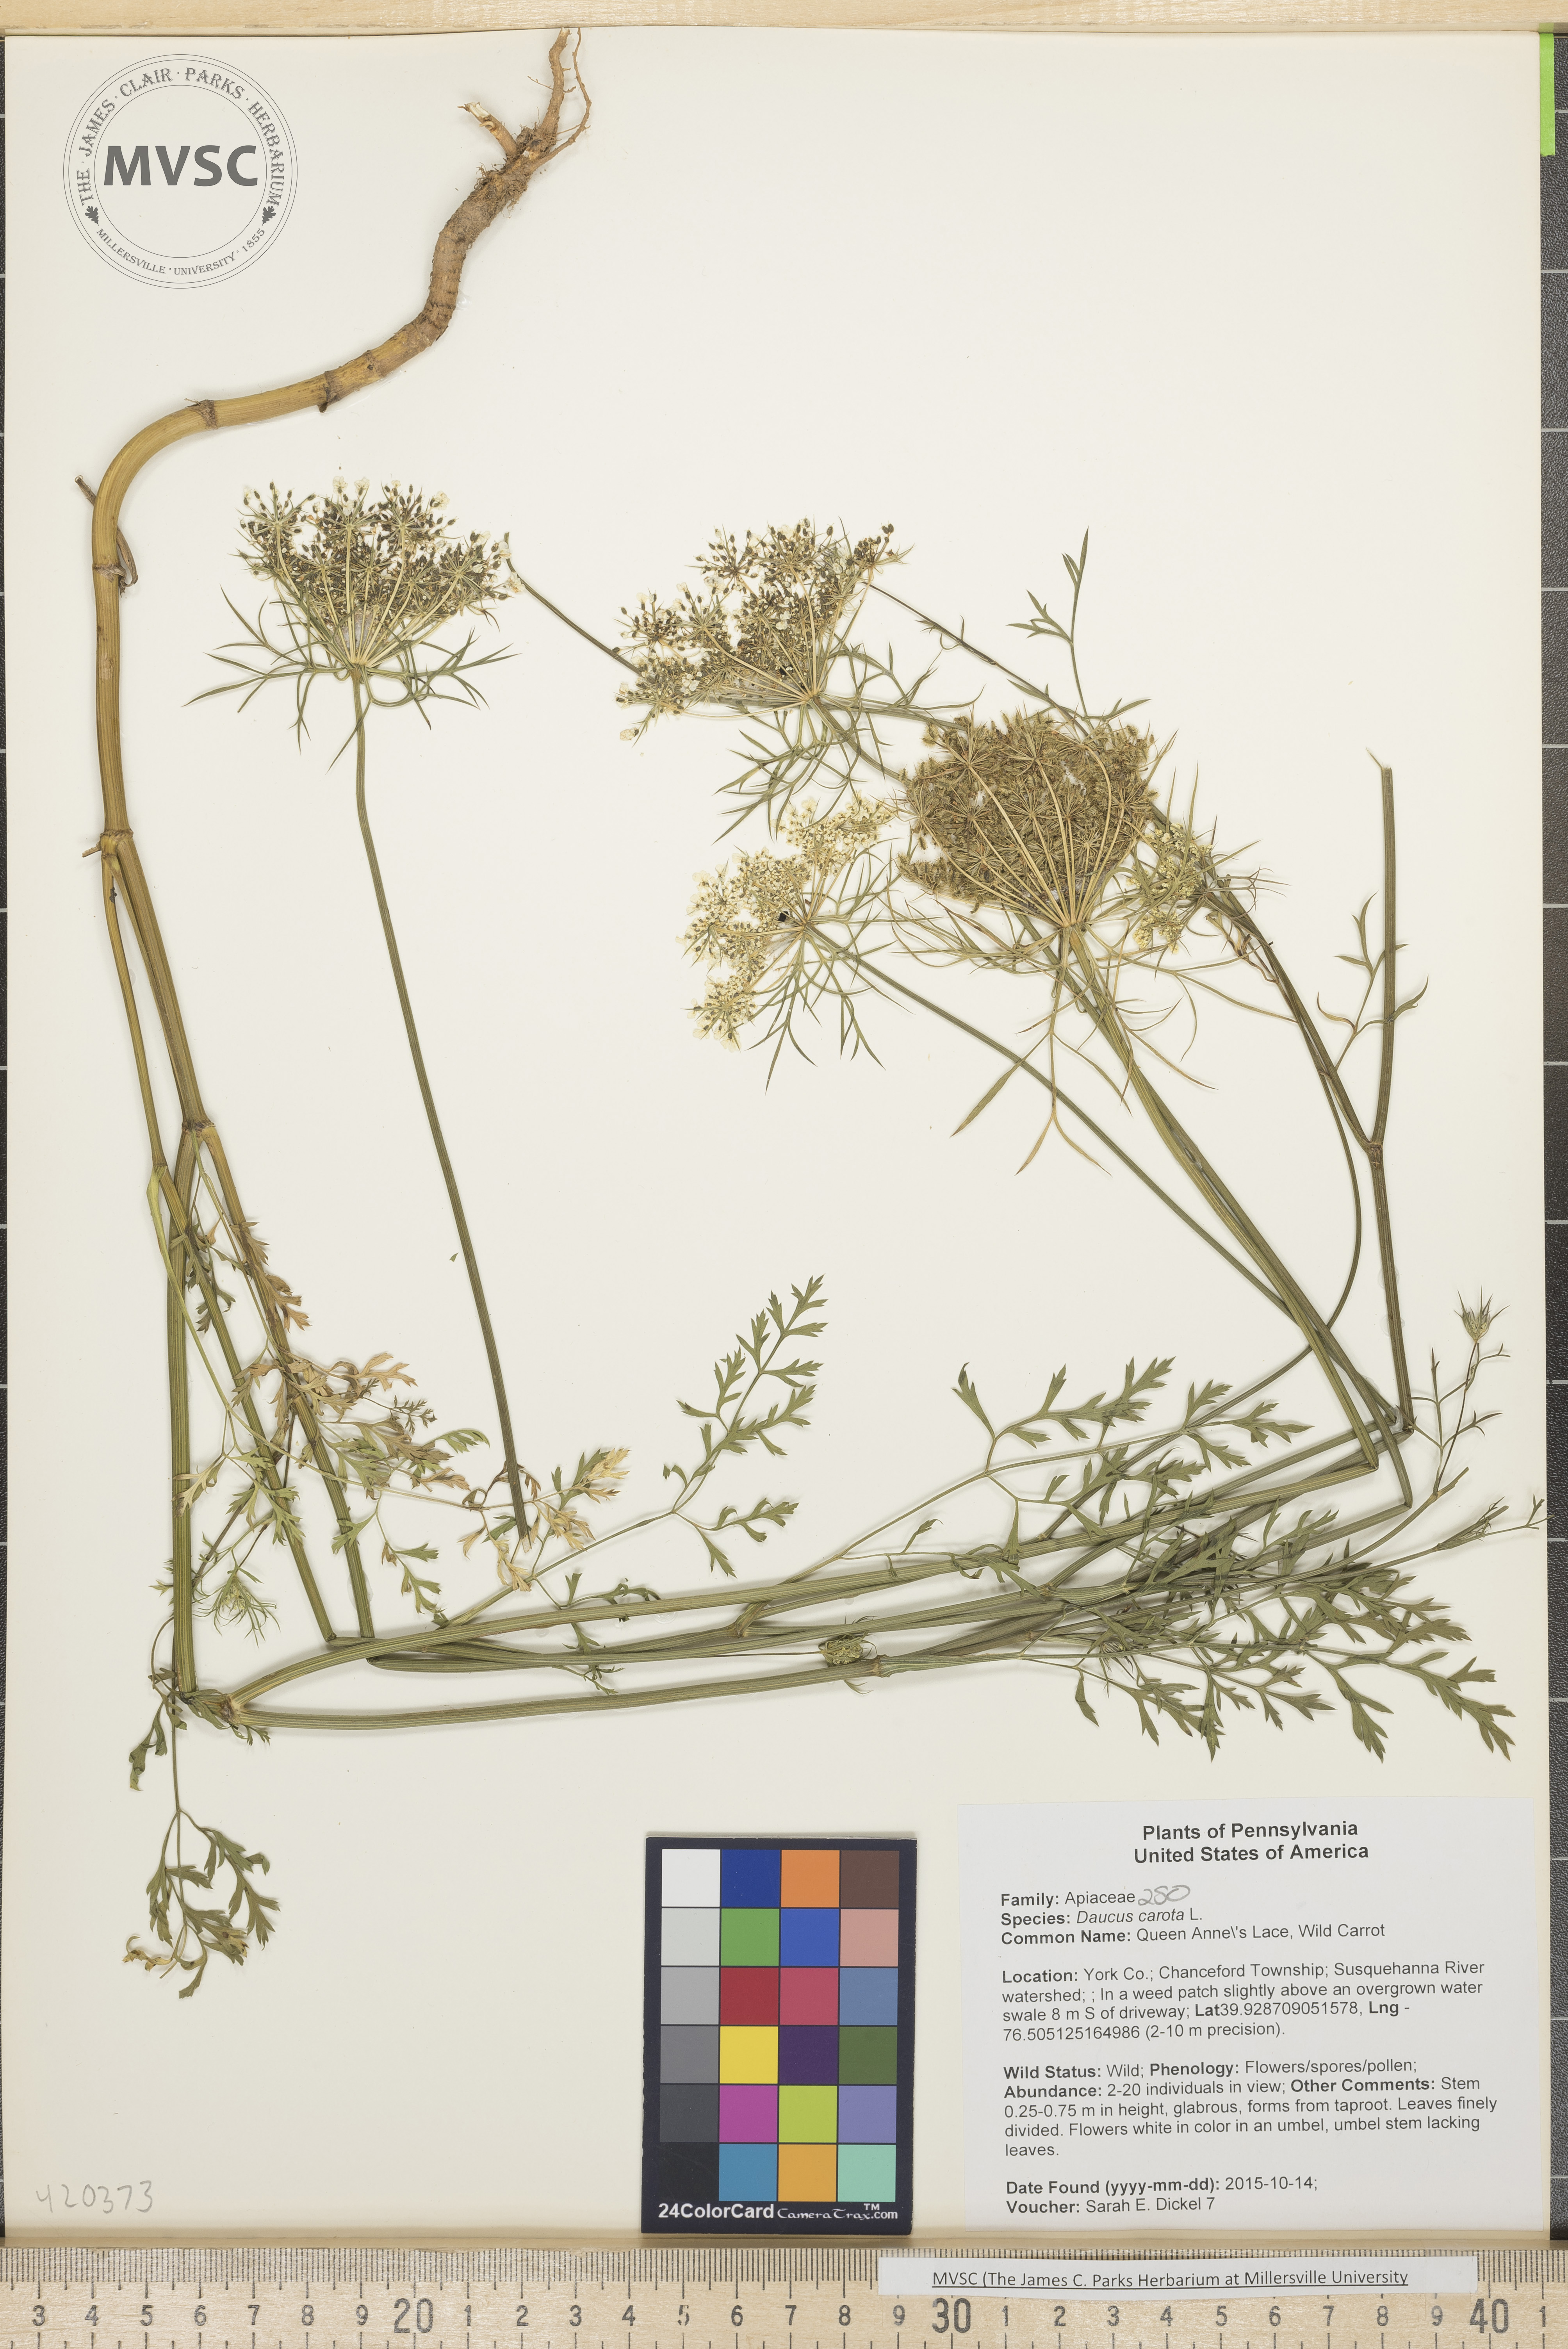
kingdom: Plantae
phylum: Tracheophyta
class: Magnoliopsida
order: Apiales
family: Apiaceae
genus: Daucus
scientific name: Daucus carota
